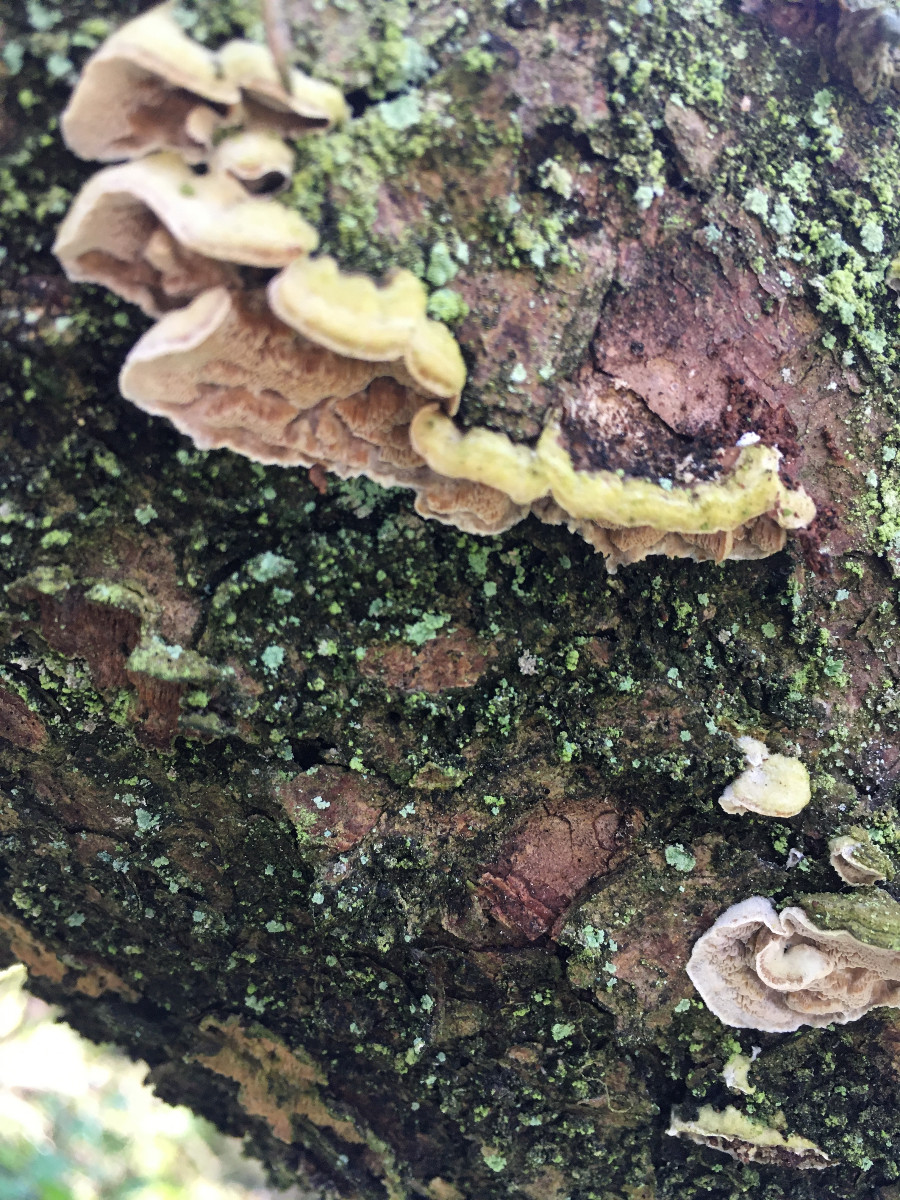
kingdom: Fungi
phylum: Basidiomycota
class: Agaricomycetes
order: Polyporales
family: Incrustoporiaceae
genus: Skeletocutis
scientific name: Skeletocutis
